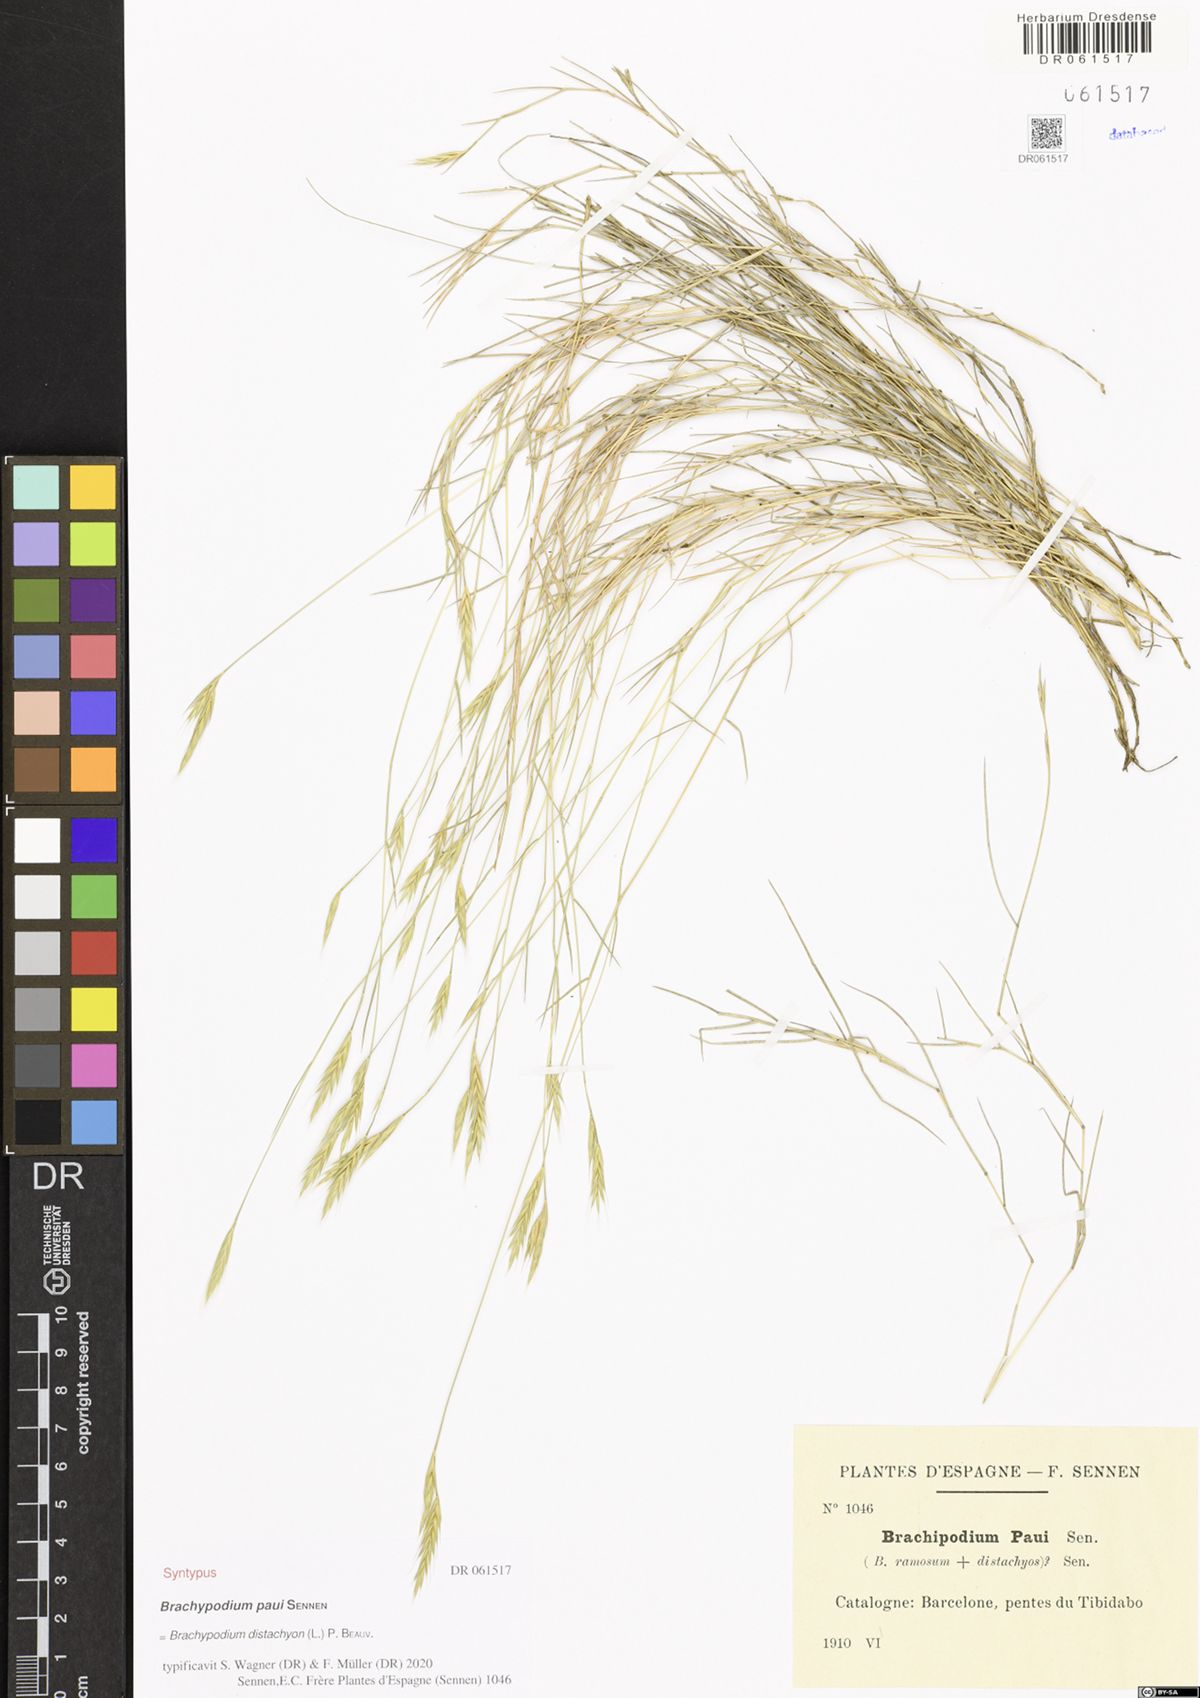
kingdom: Plantae
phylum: Tracheophyta
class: Liliopsida
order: Poales
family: Poaceae
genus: Brachypodium
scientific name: Brachypodium distachyon
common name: Stiff brome
